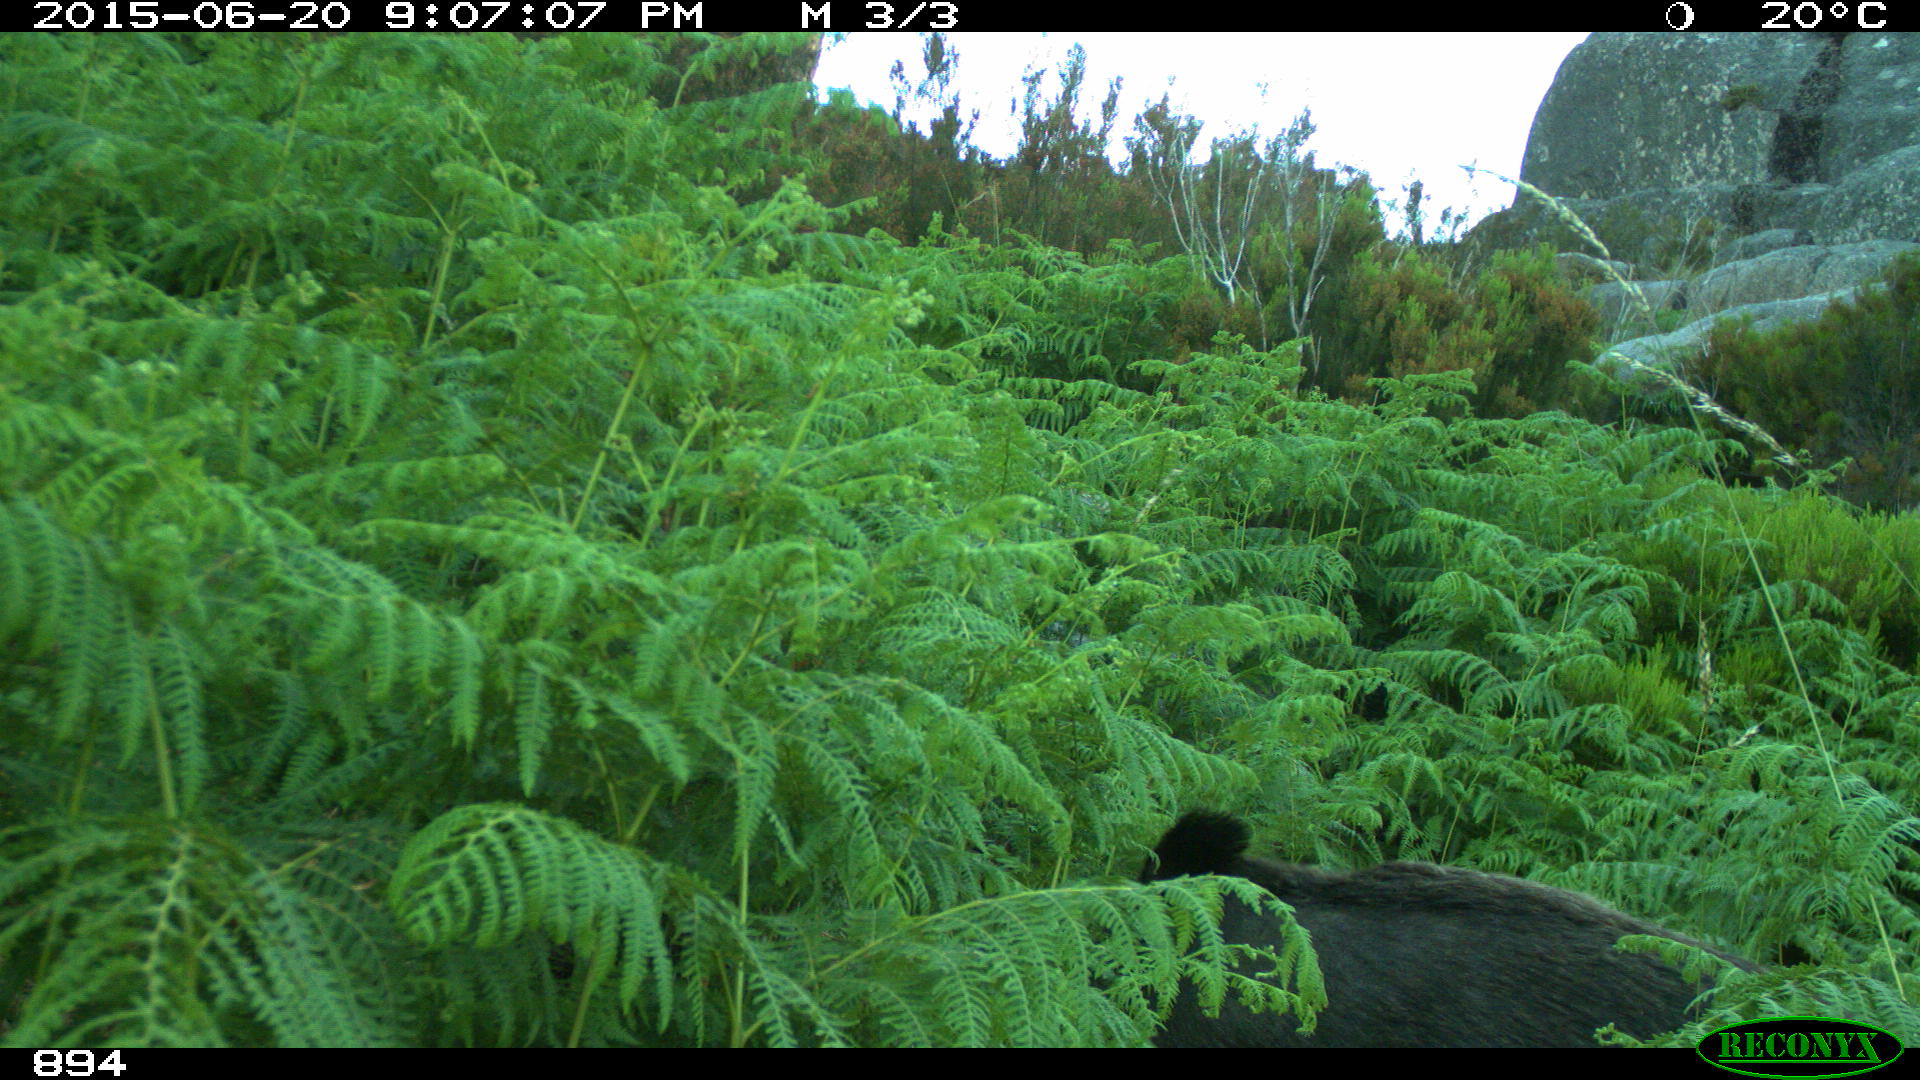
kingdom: Animalia
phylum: Chordata
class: Mammalia
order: Artiodactyla
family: Suidae
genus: Sus
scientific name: Sus scrofa
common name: Wild boar
